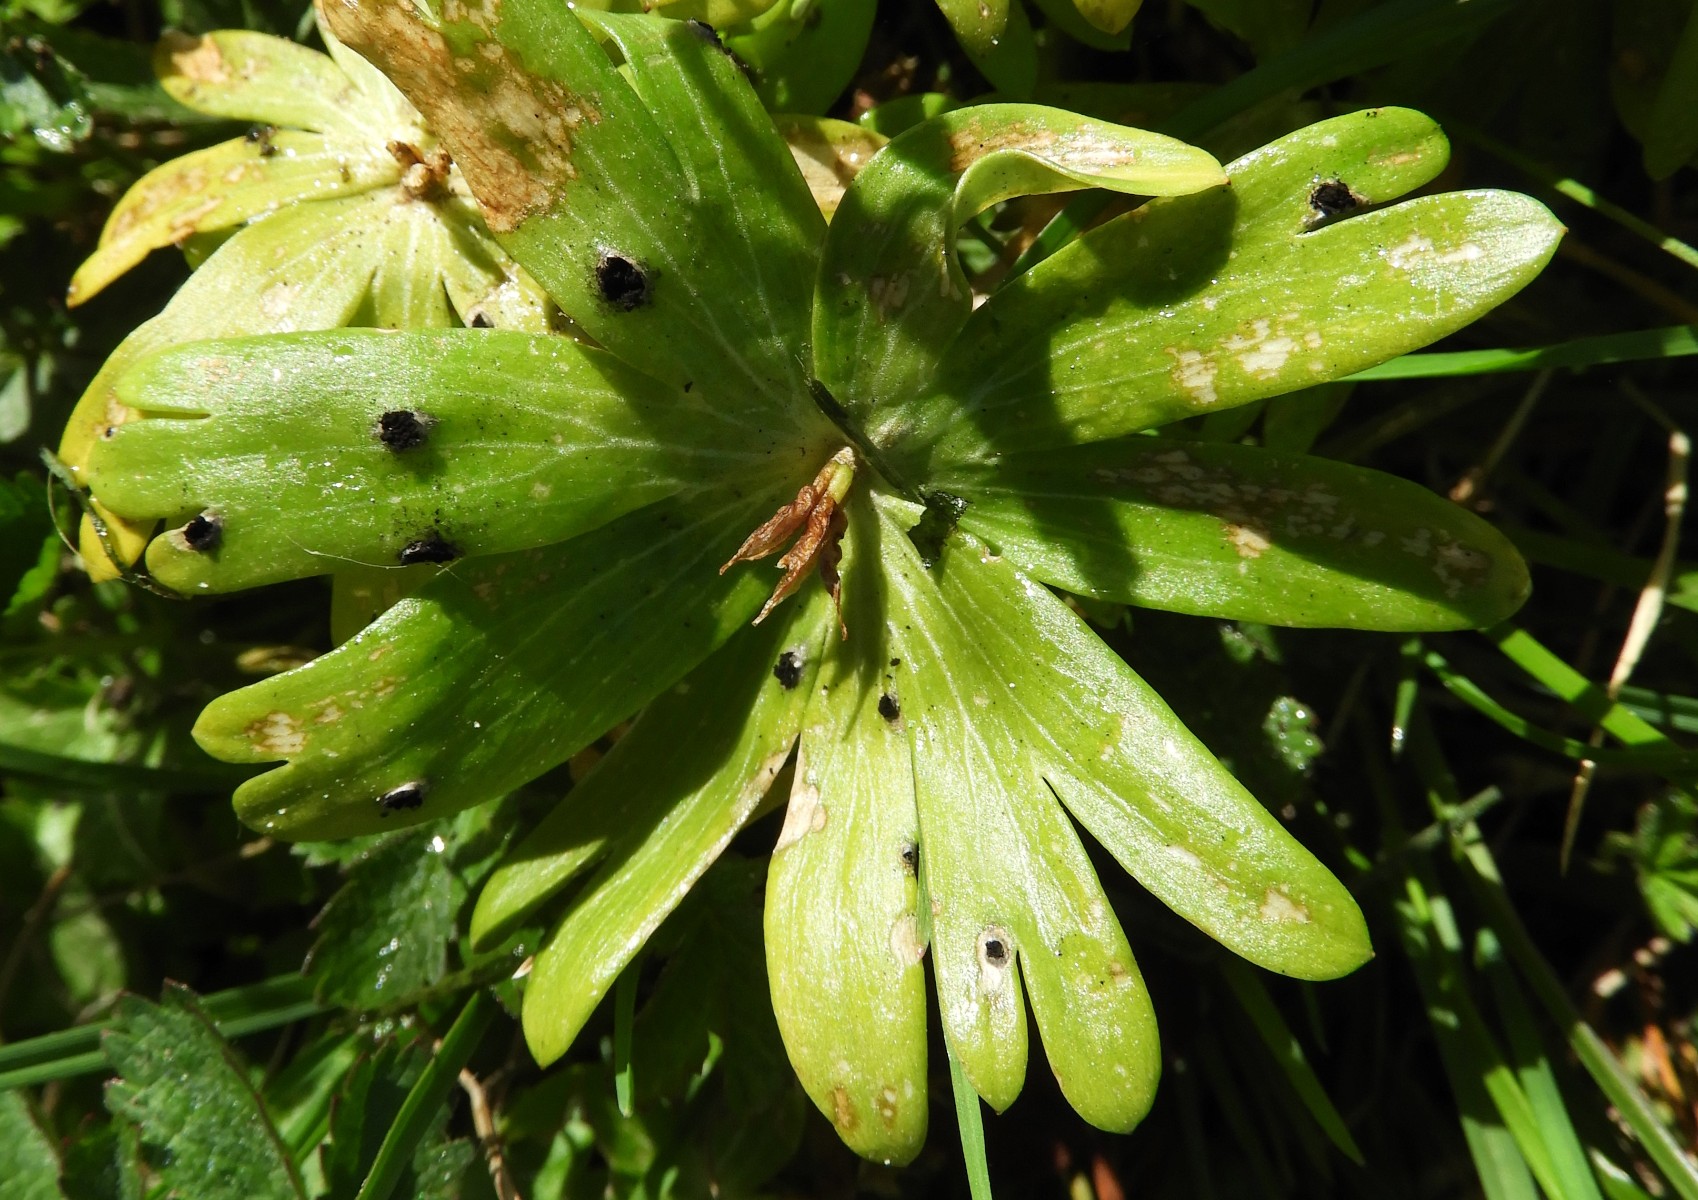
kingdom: Fungi
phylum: Basidiomycota
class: Ustilaginomycetes
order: Urocystidales
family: Urocystidaceae
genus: Urocystis
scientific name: Urocystis eranthidis
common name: erantis-brand
